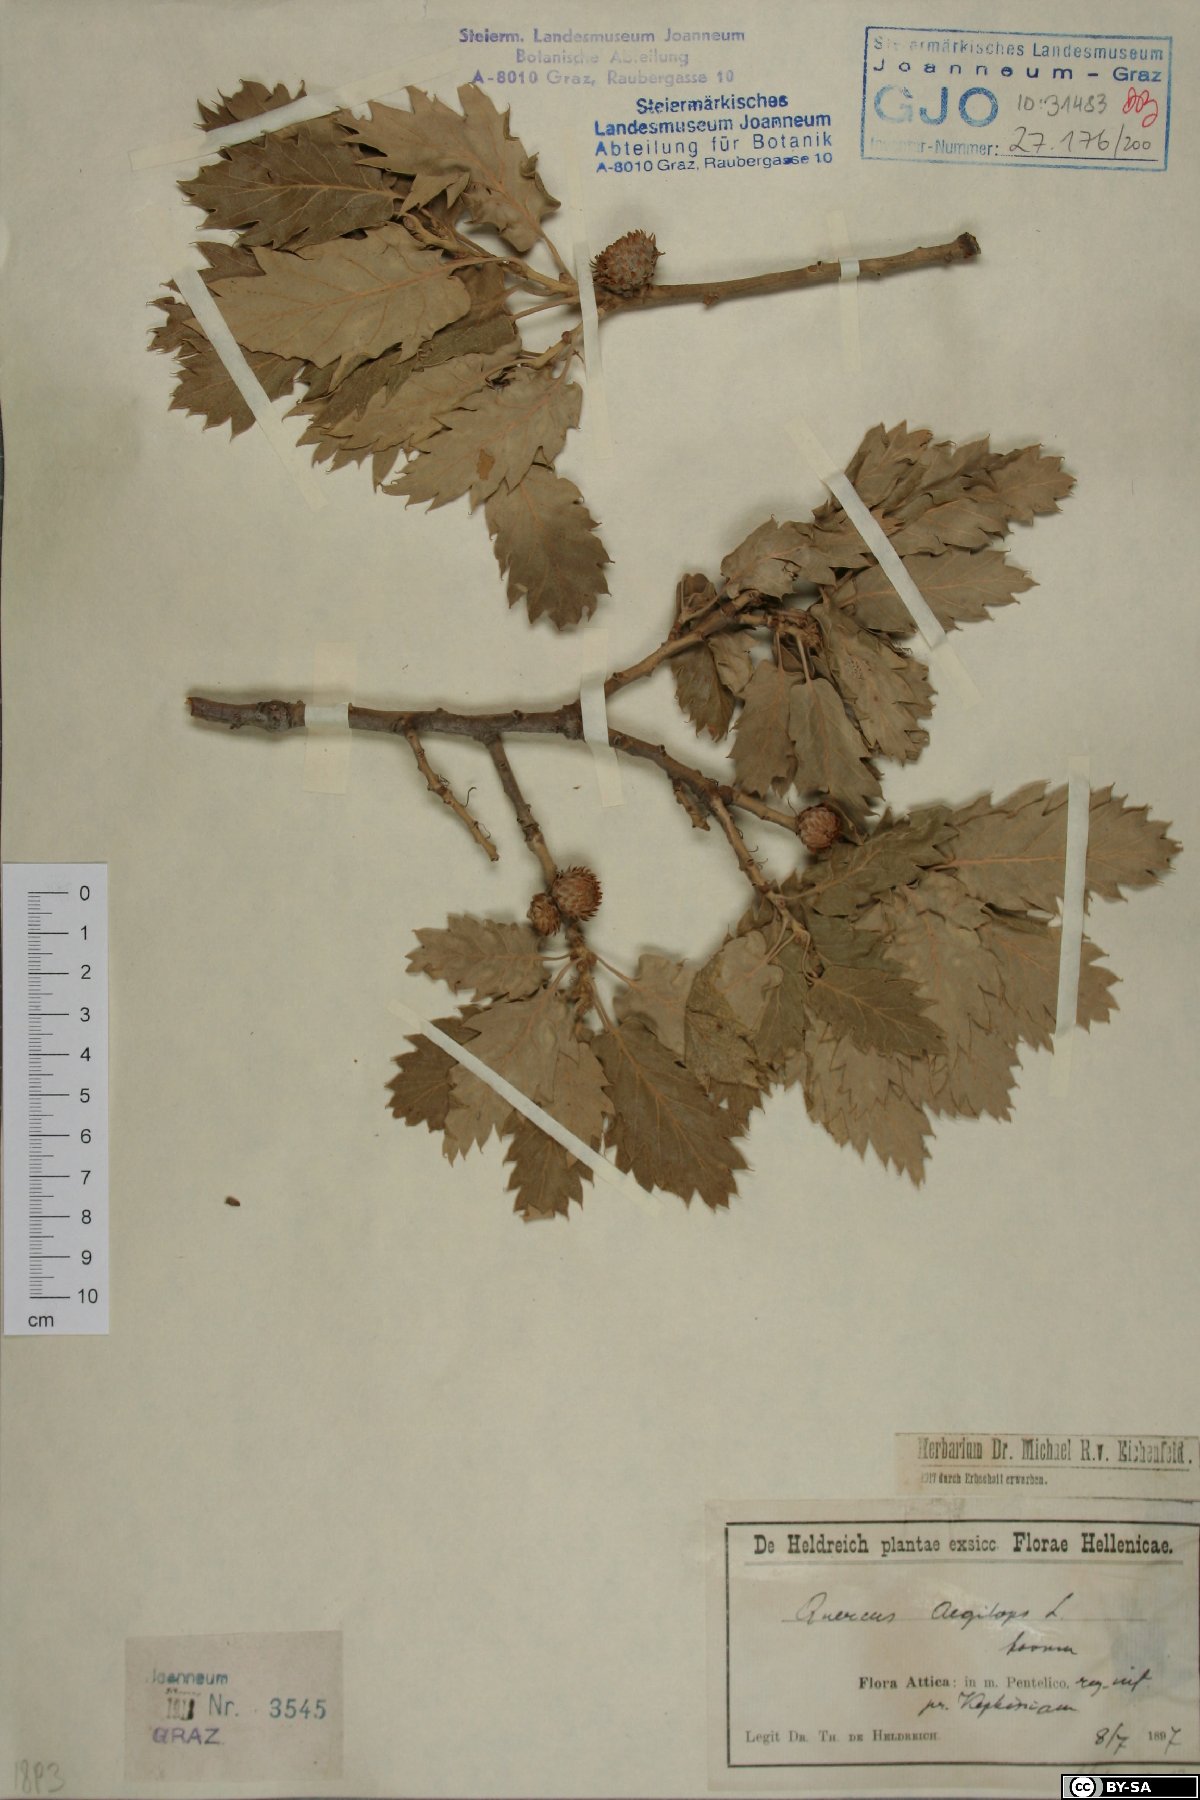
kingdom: Plantae
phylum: Tracheophyta
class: Magnoliopsida
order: Fagales
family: Fagaceae
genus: Quercus
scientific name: Quercus alba
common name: White oak
